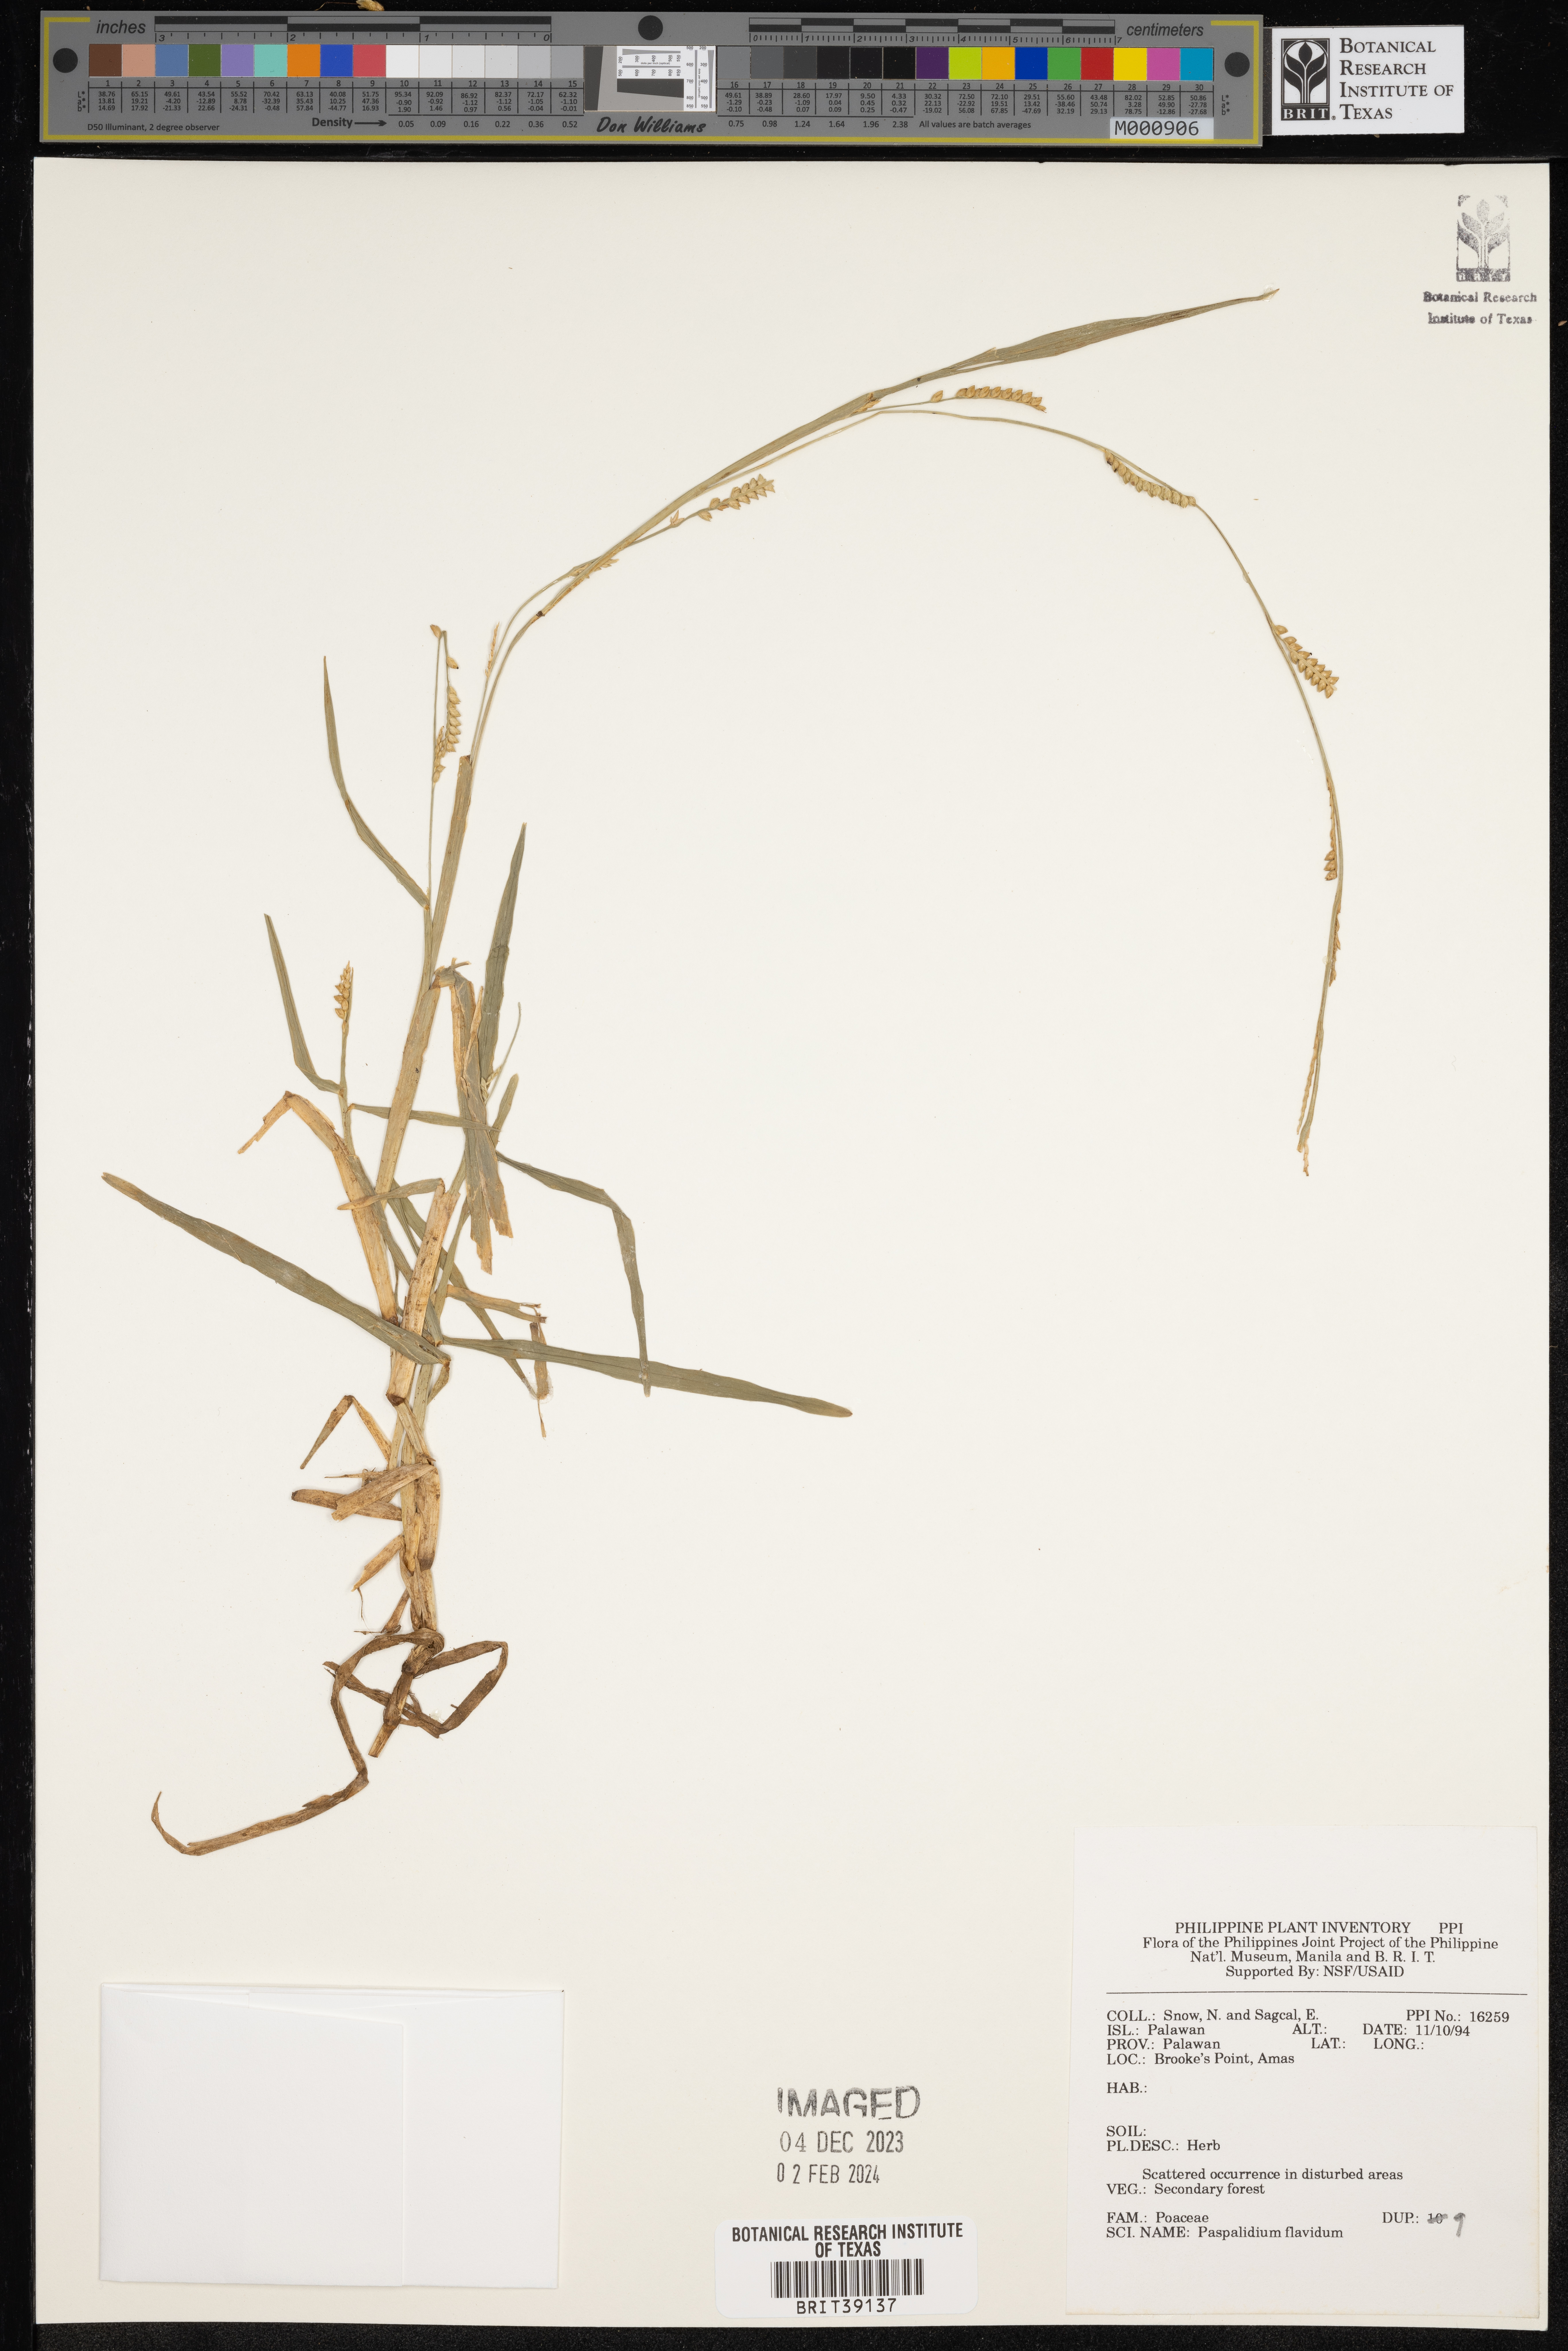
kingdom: Plantae
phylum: Tracheophyta
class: Liliopsida
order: Poales
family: Poaceae
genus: Setaria
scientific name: Setaria flavida
